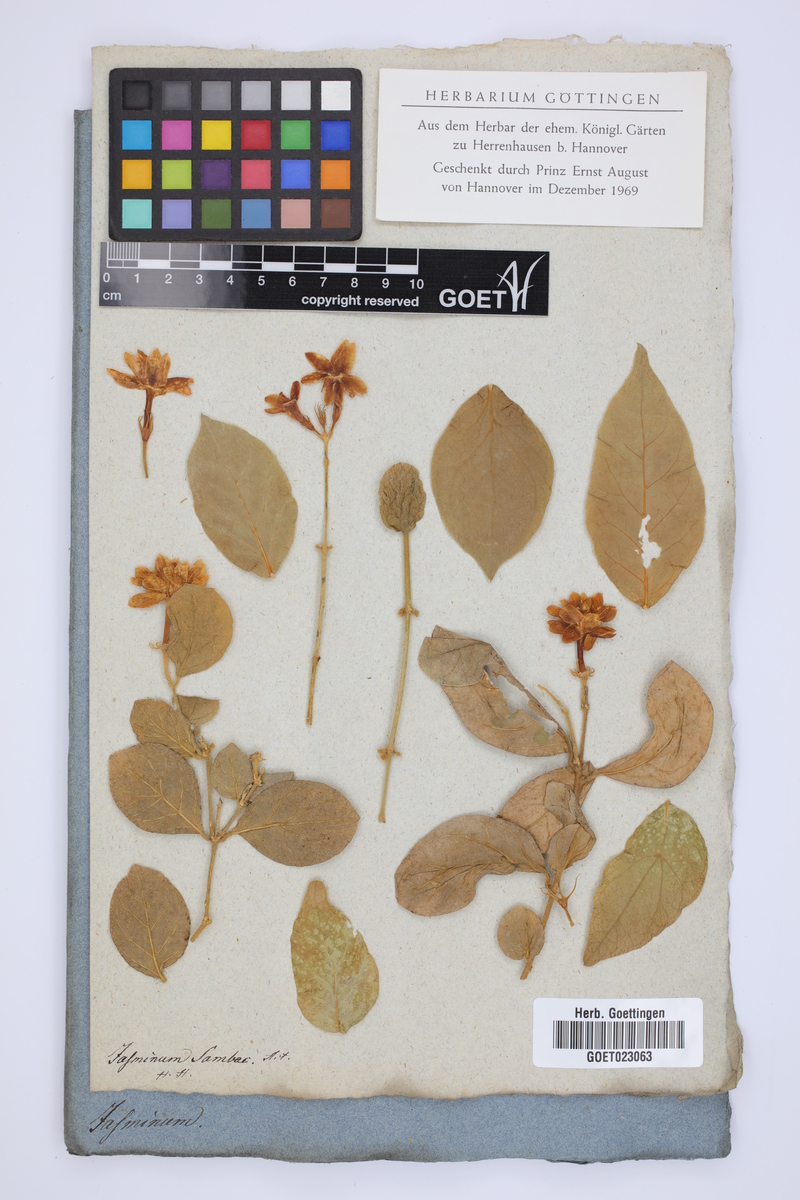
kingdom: Plantae
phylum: Tracheophyta
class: Magnoliopsida
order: Lamiales
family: Oleaceae
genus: Jasminum
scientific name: Jasminum sambac
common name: Arabian jasmine
